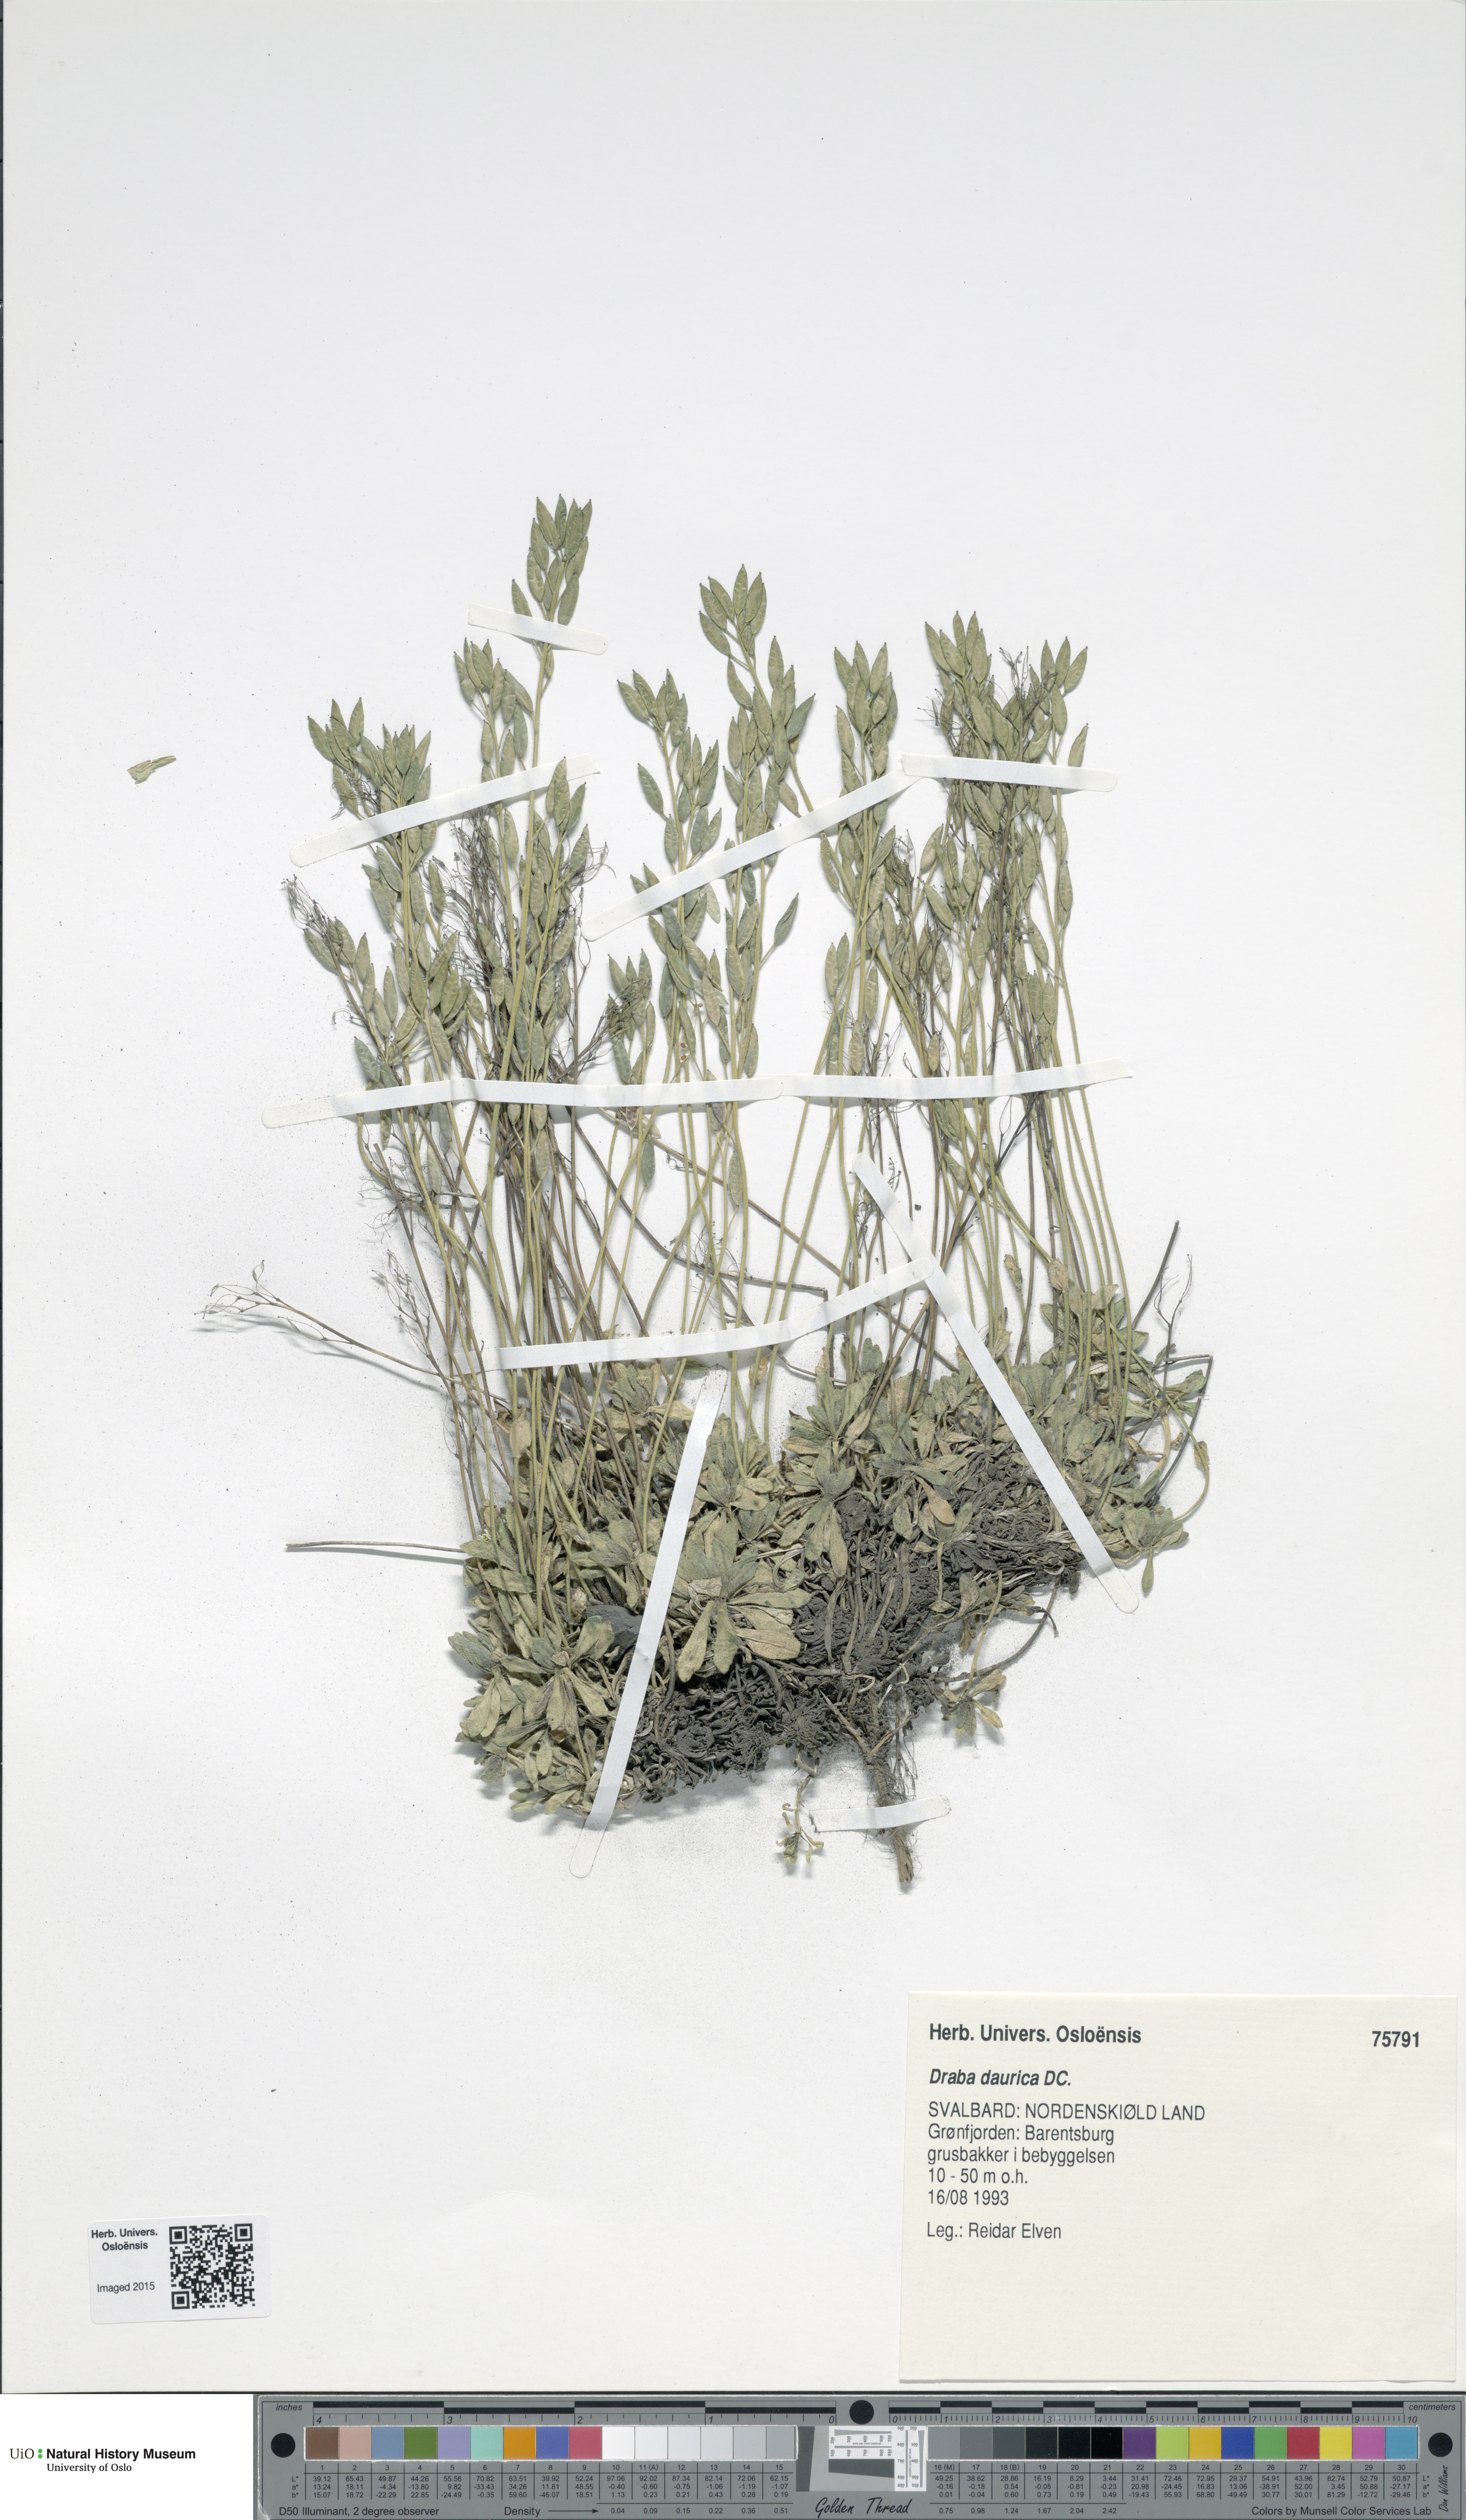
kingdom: Plantae
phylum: Tracheophyta
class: Magnoliopsida
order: Brassicales
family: Brassicaceae
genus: Draba
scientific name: Draba glabella
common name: Glaucous draba
